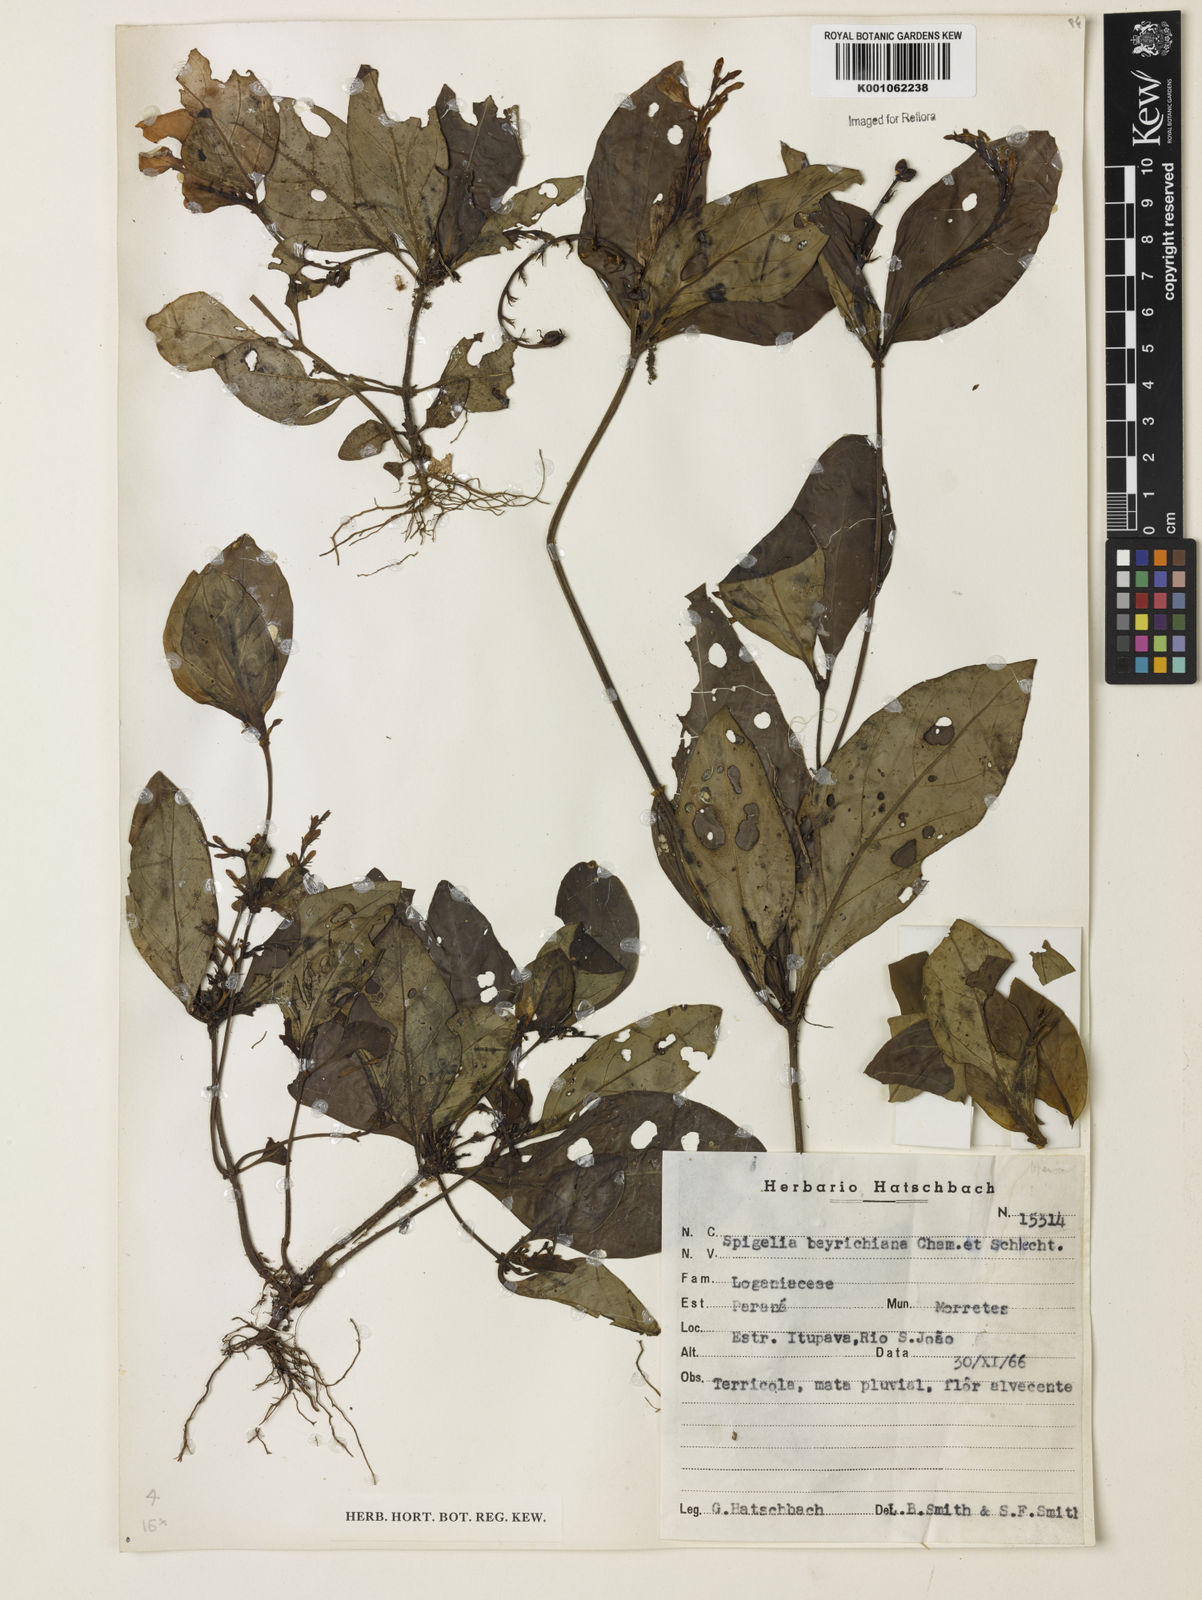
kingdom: Plantae
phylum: Tracheophyta
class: Magnoliopsida
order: Gentianales
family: Loganiaceae
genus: Spigelia
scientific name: Spigelia beyrichiana
